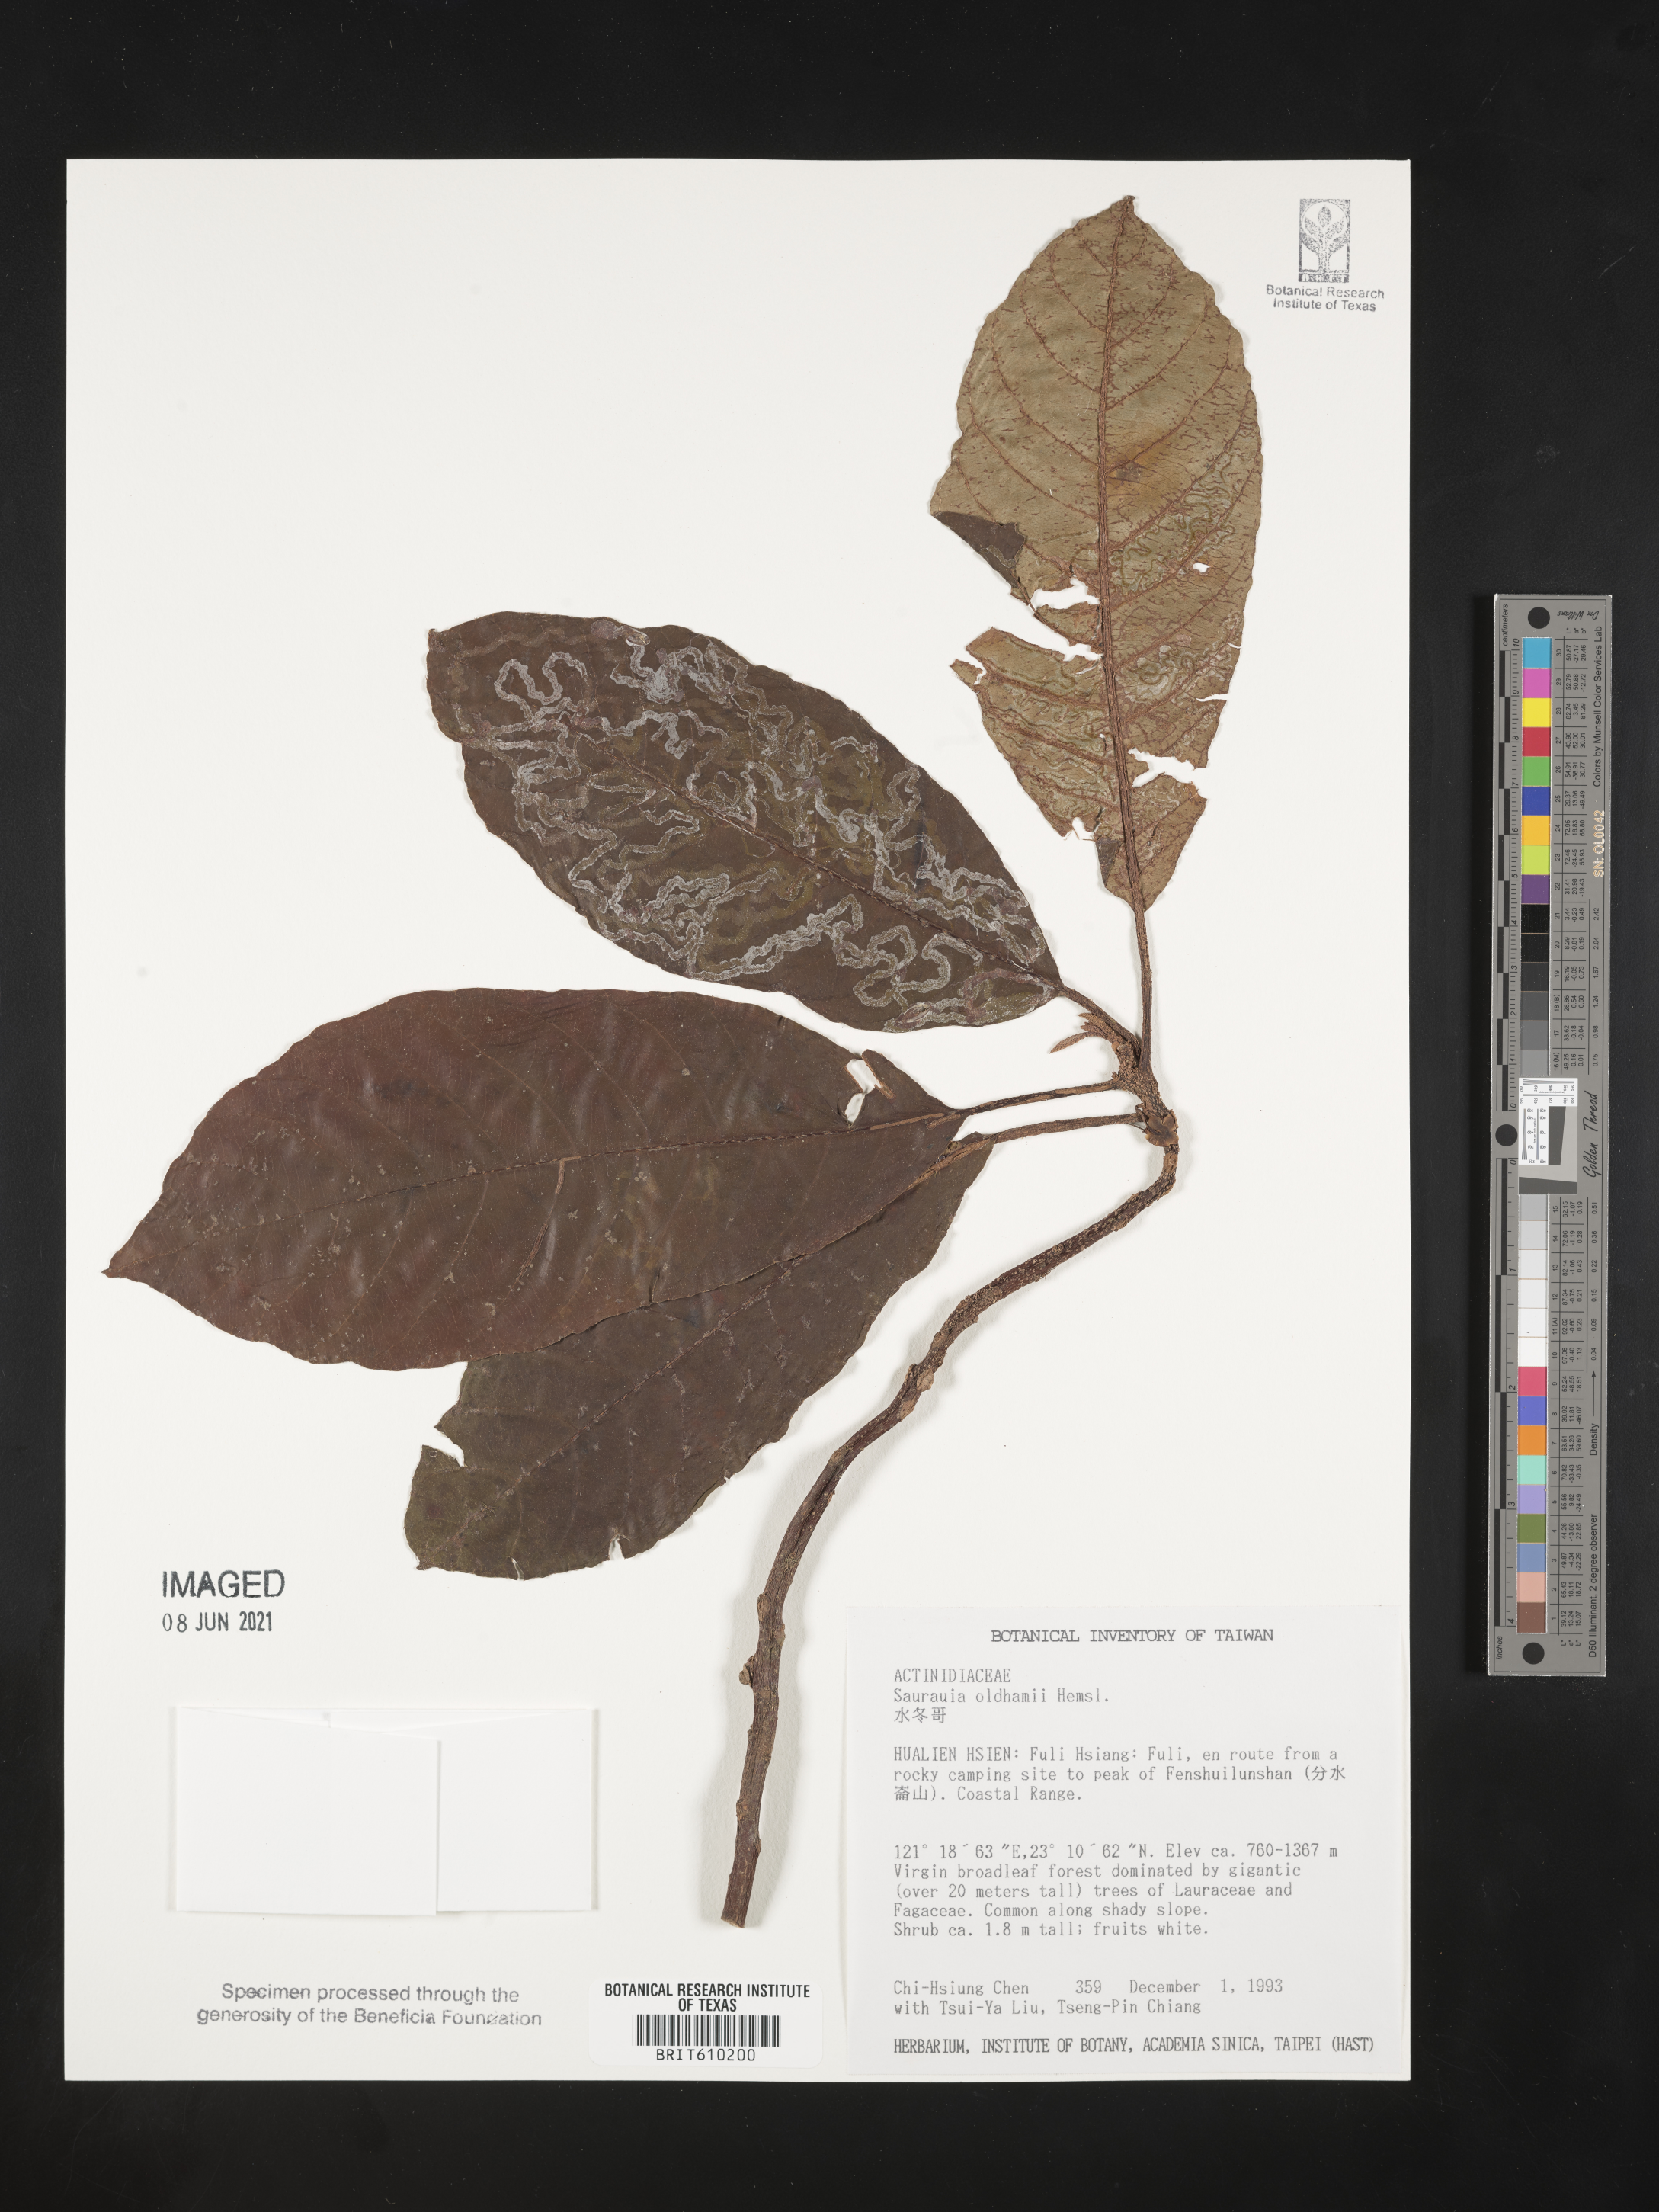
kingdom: Plantae
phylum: Tracheophyta
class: Magnoliopsida
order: Ericales
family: Actinidiaceae
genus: Saurauia
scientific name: Saurauia tristyla
